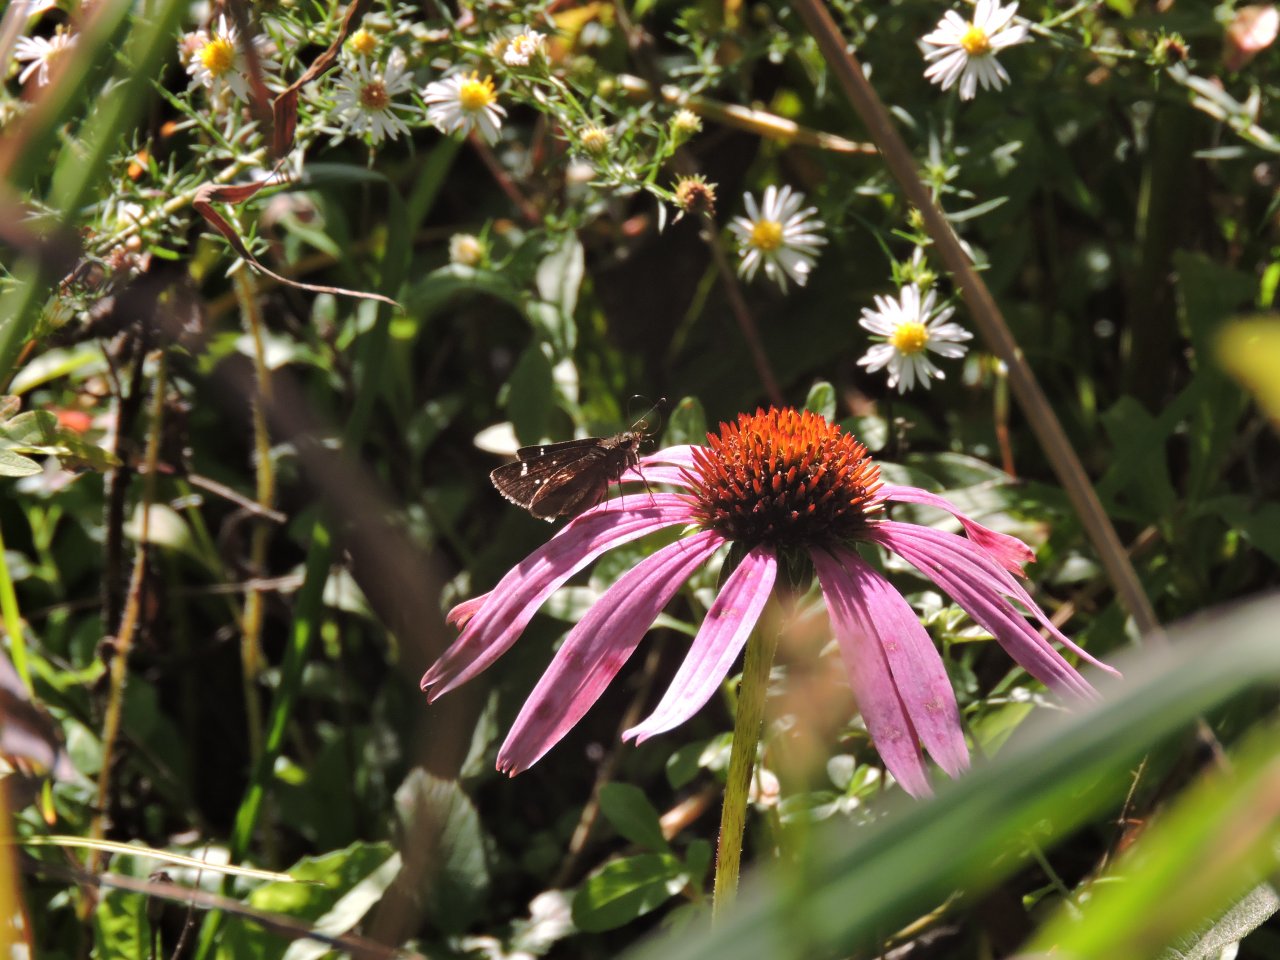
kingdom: Animalia
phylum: Arthropoda
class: Insecta
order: Lepidoptera
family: Hesperiidae
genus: Panoquina
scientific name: Panoquina ocola
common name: Ocola Skipper
